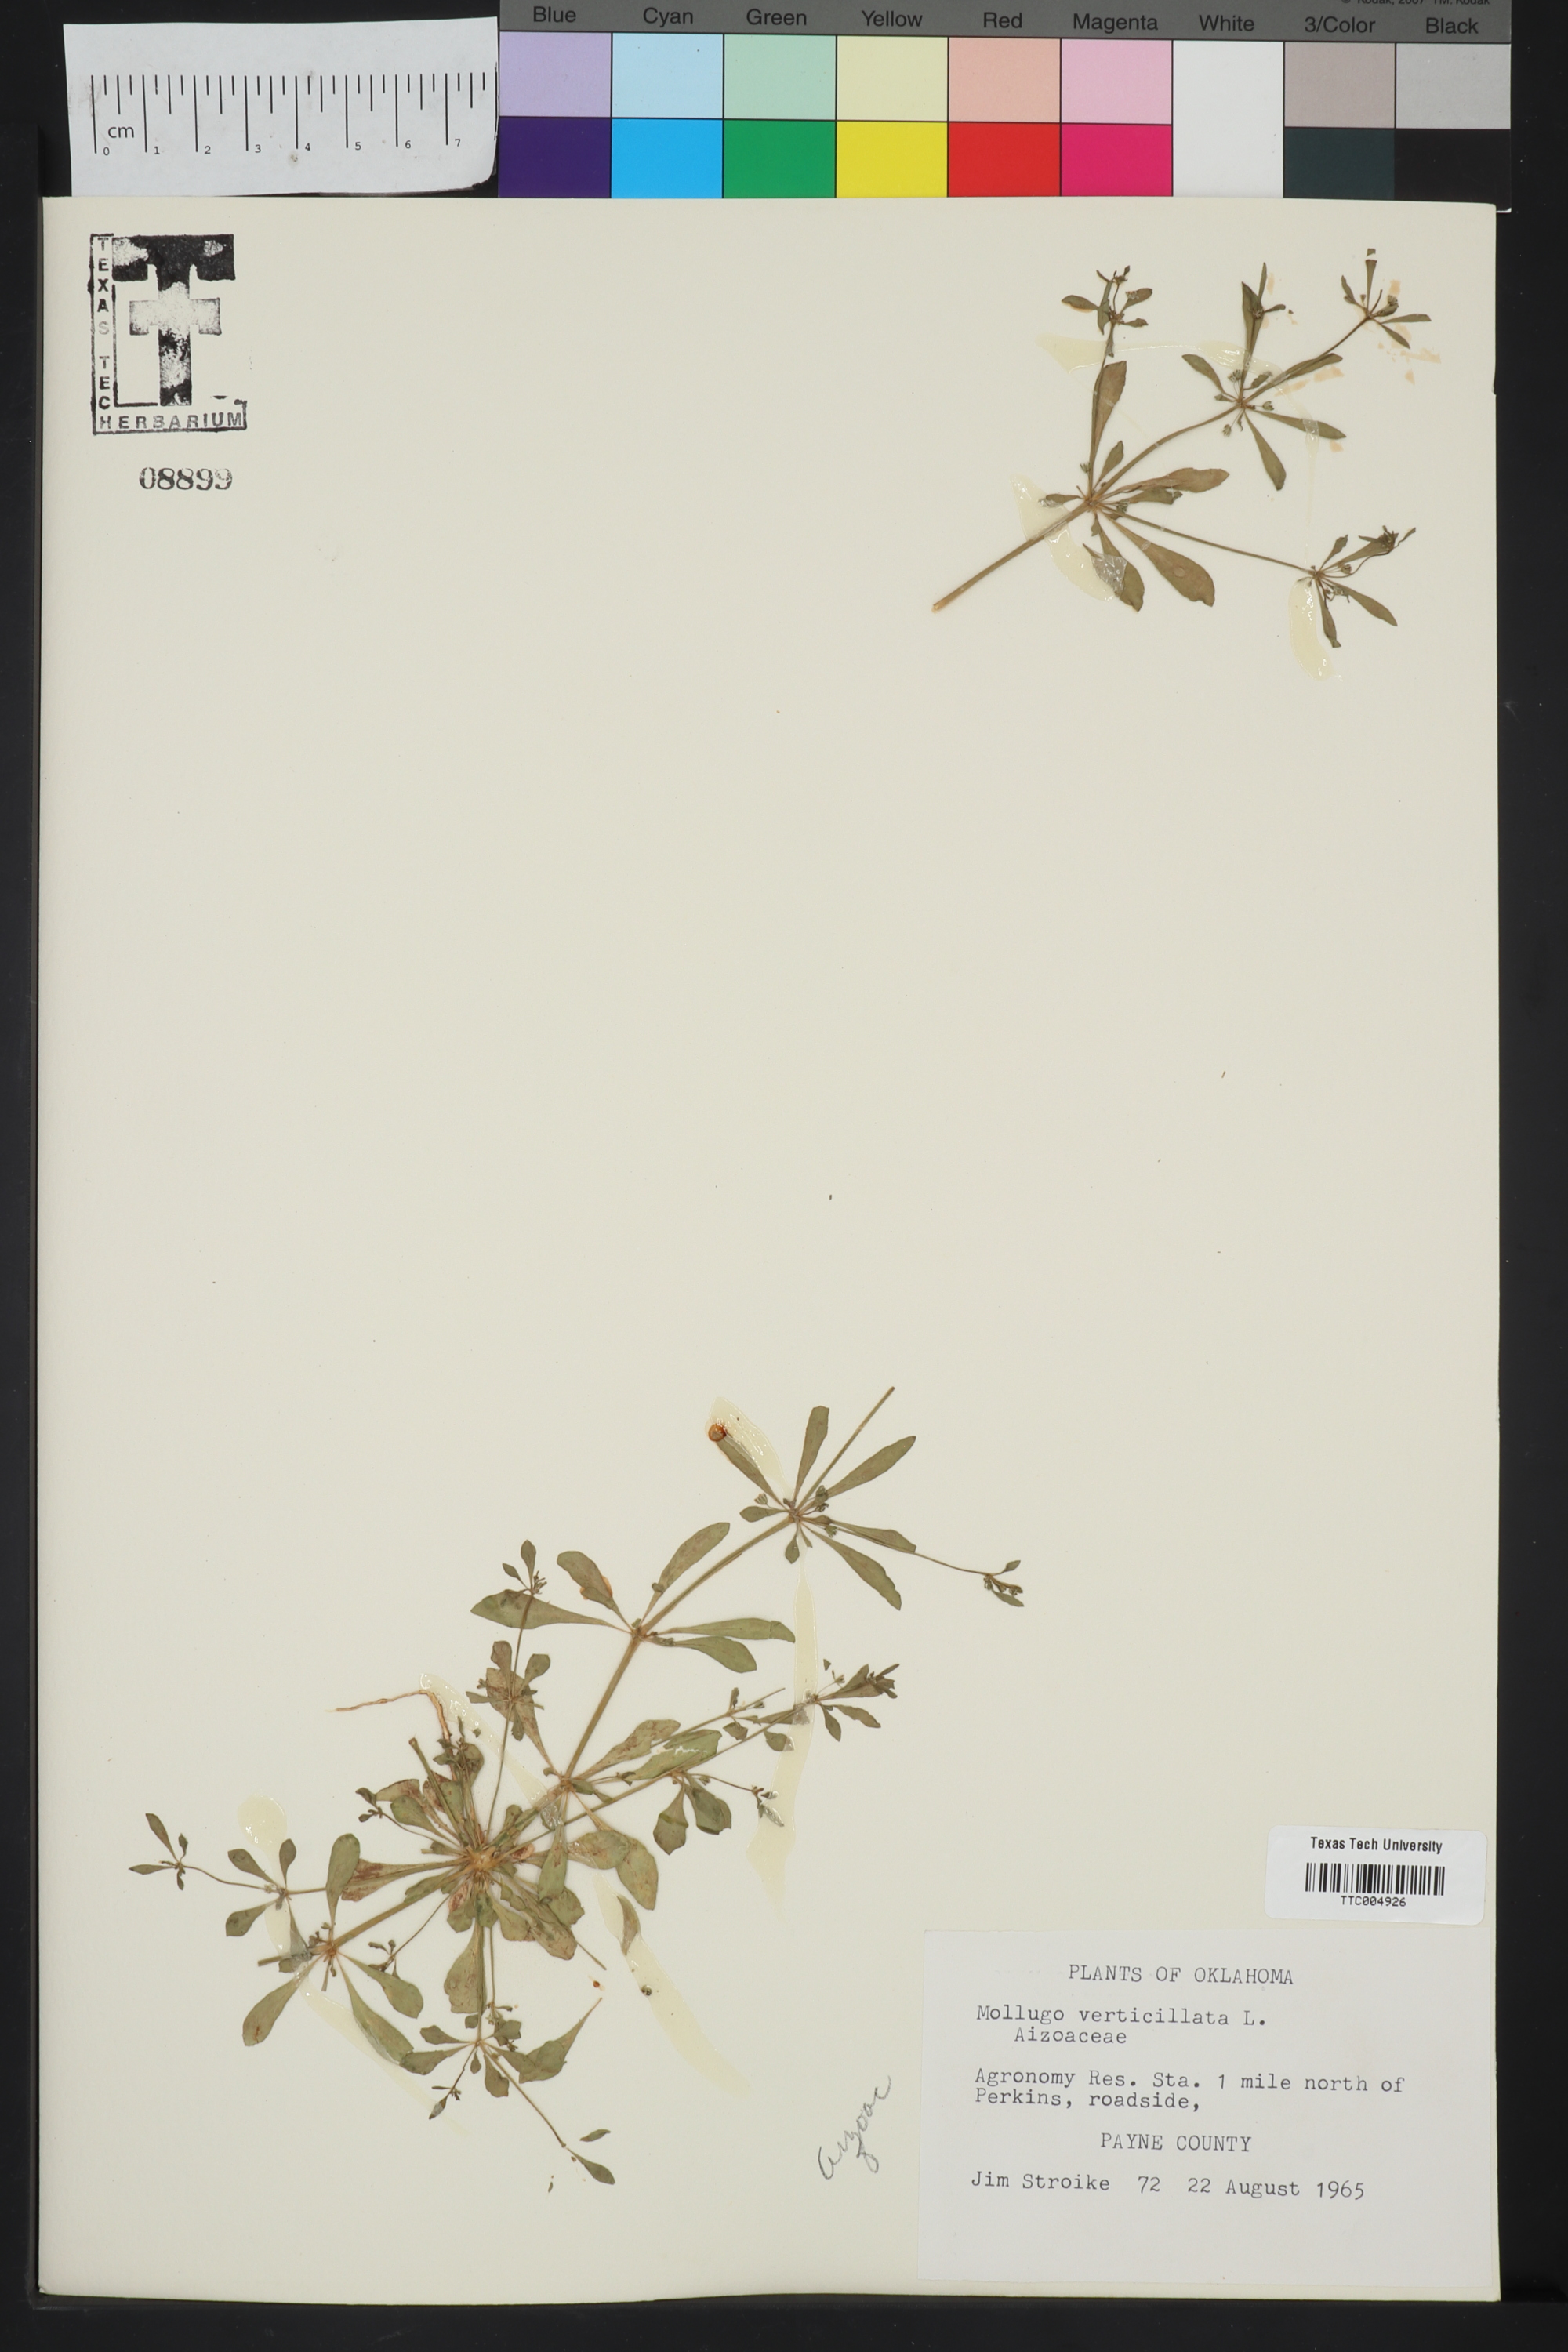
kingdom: Plantae
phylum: Tracheophyta
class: Magnoliopsida
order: Caryophyllales
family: Molluginaceae
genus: Mollugo
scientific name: Mollugo verticillata
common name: Green carpetweed
